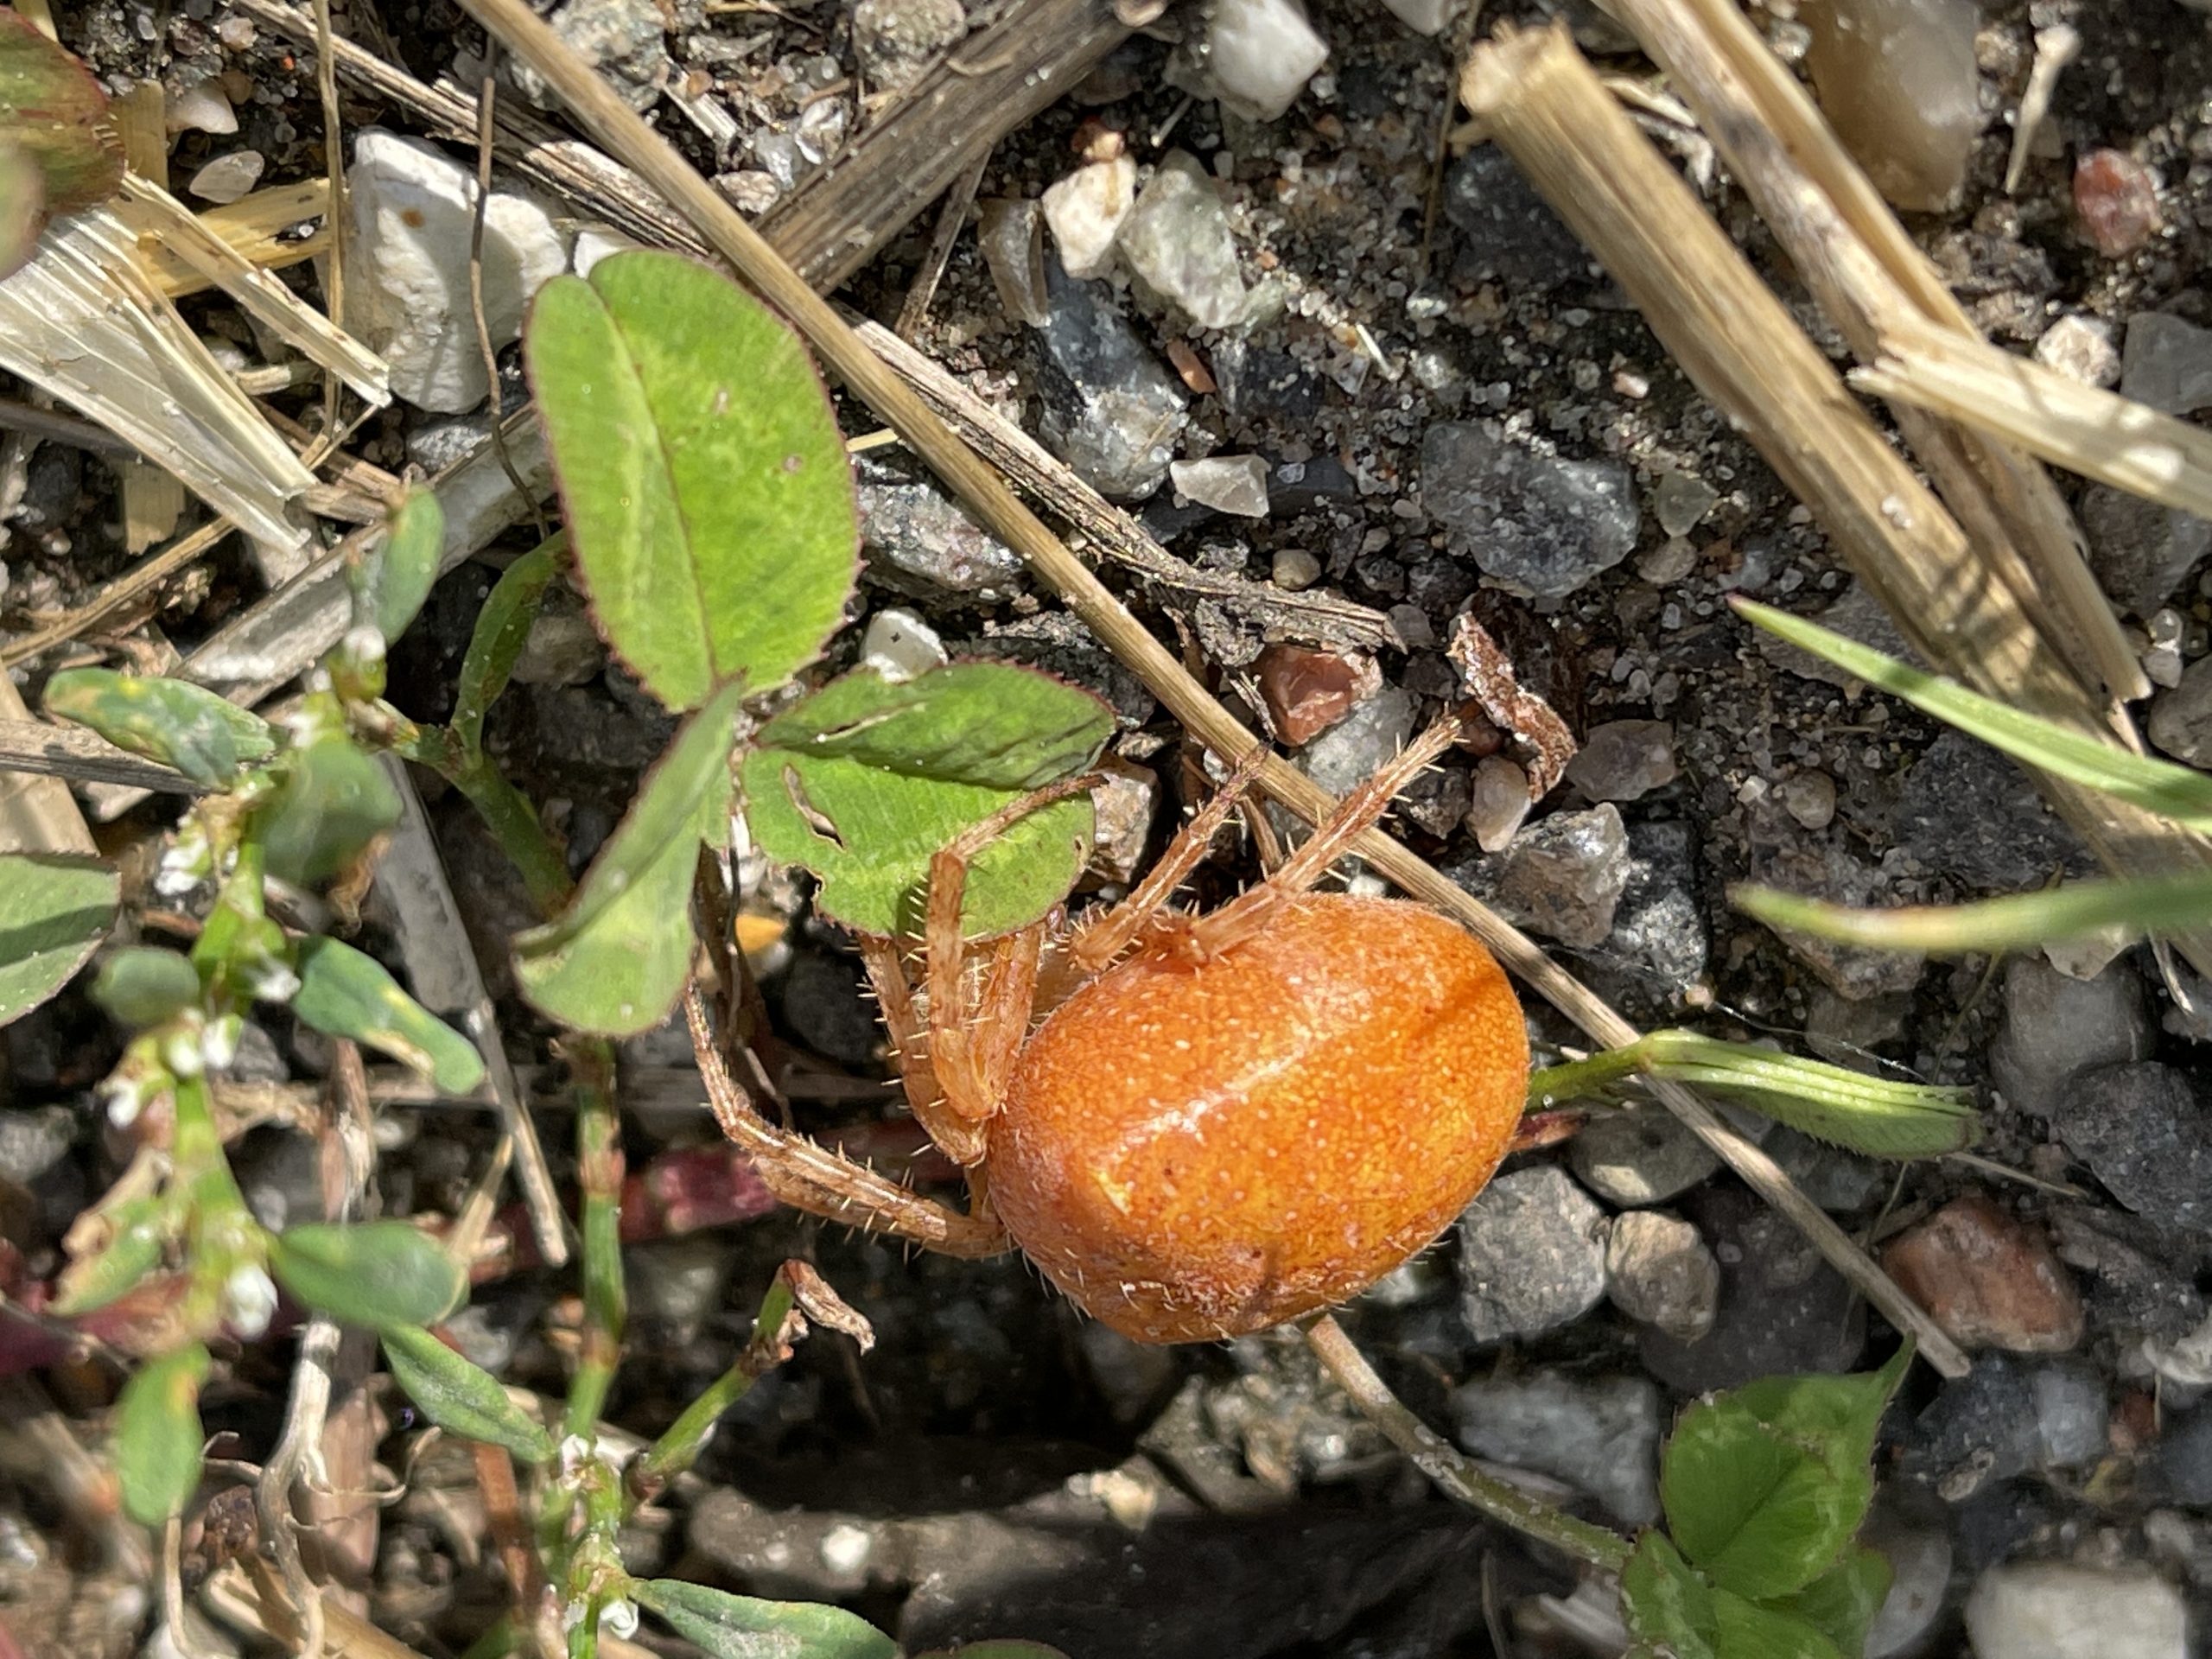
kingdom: Animalia
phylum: Arthropoda
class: Arachnida
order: Araneae
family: Araneidae
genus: Araneus
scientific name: Araneus diadematus
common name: Korsedderkop
